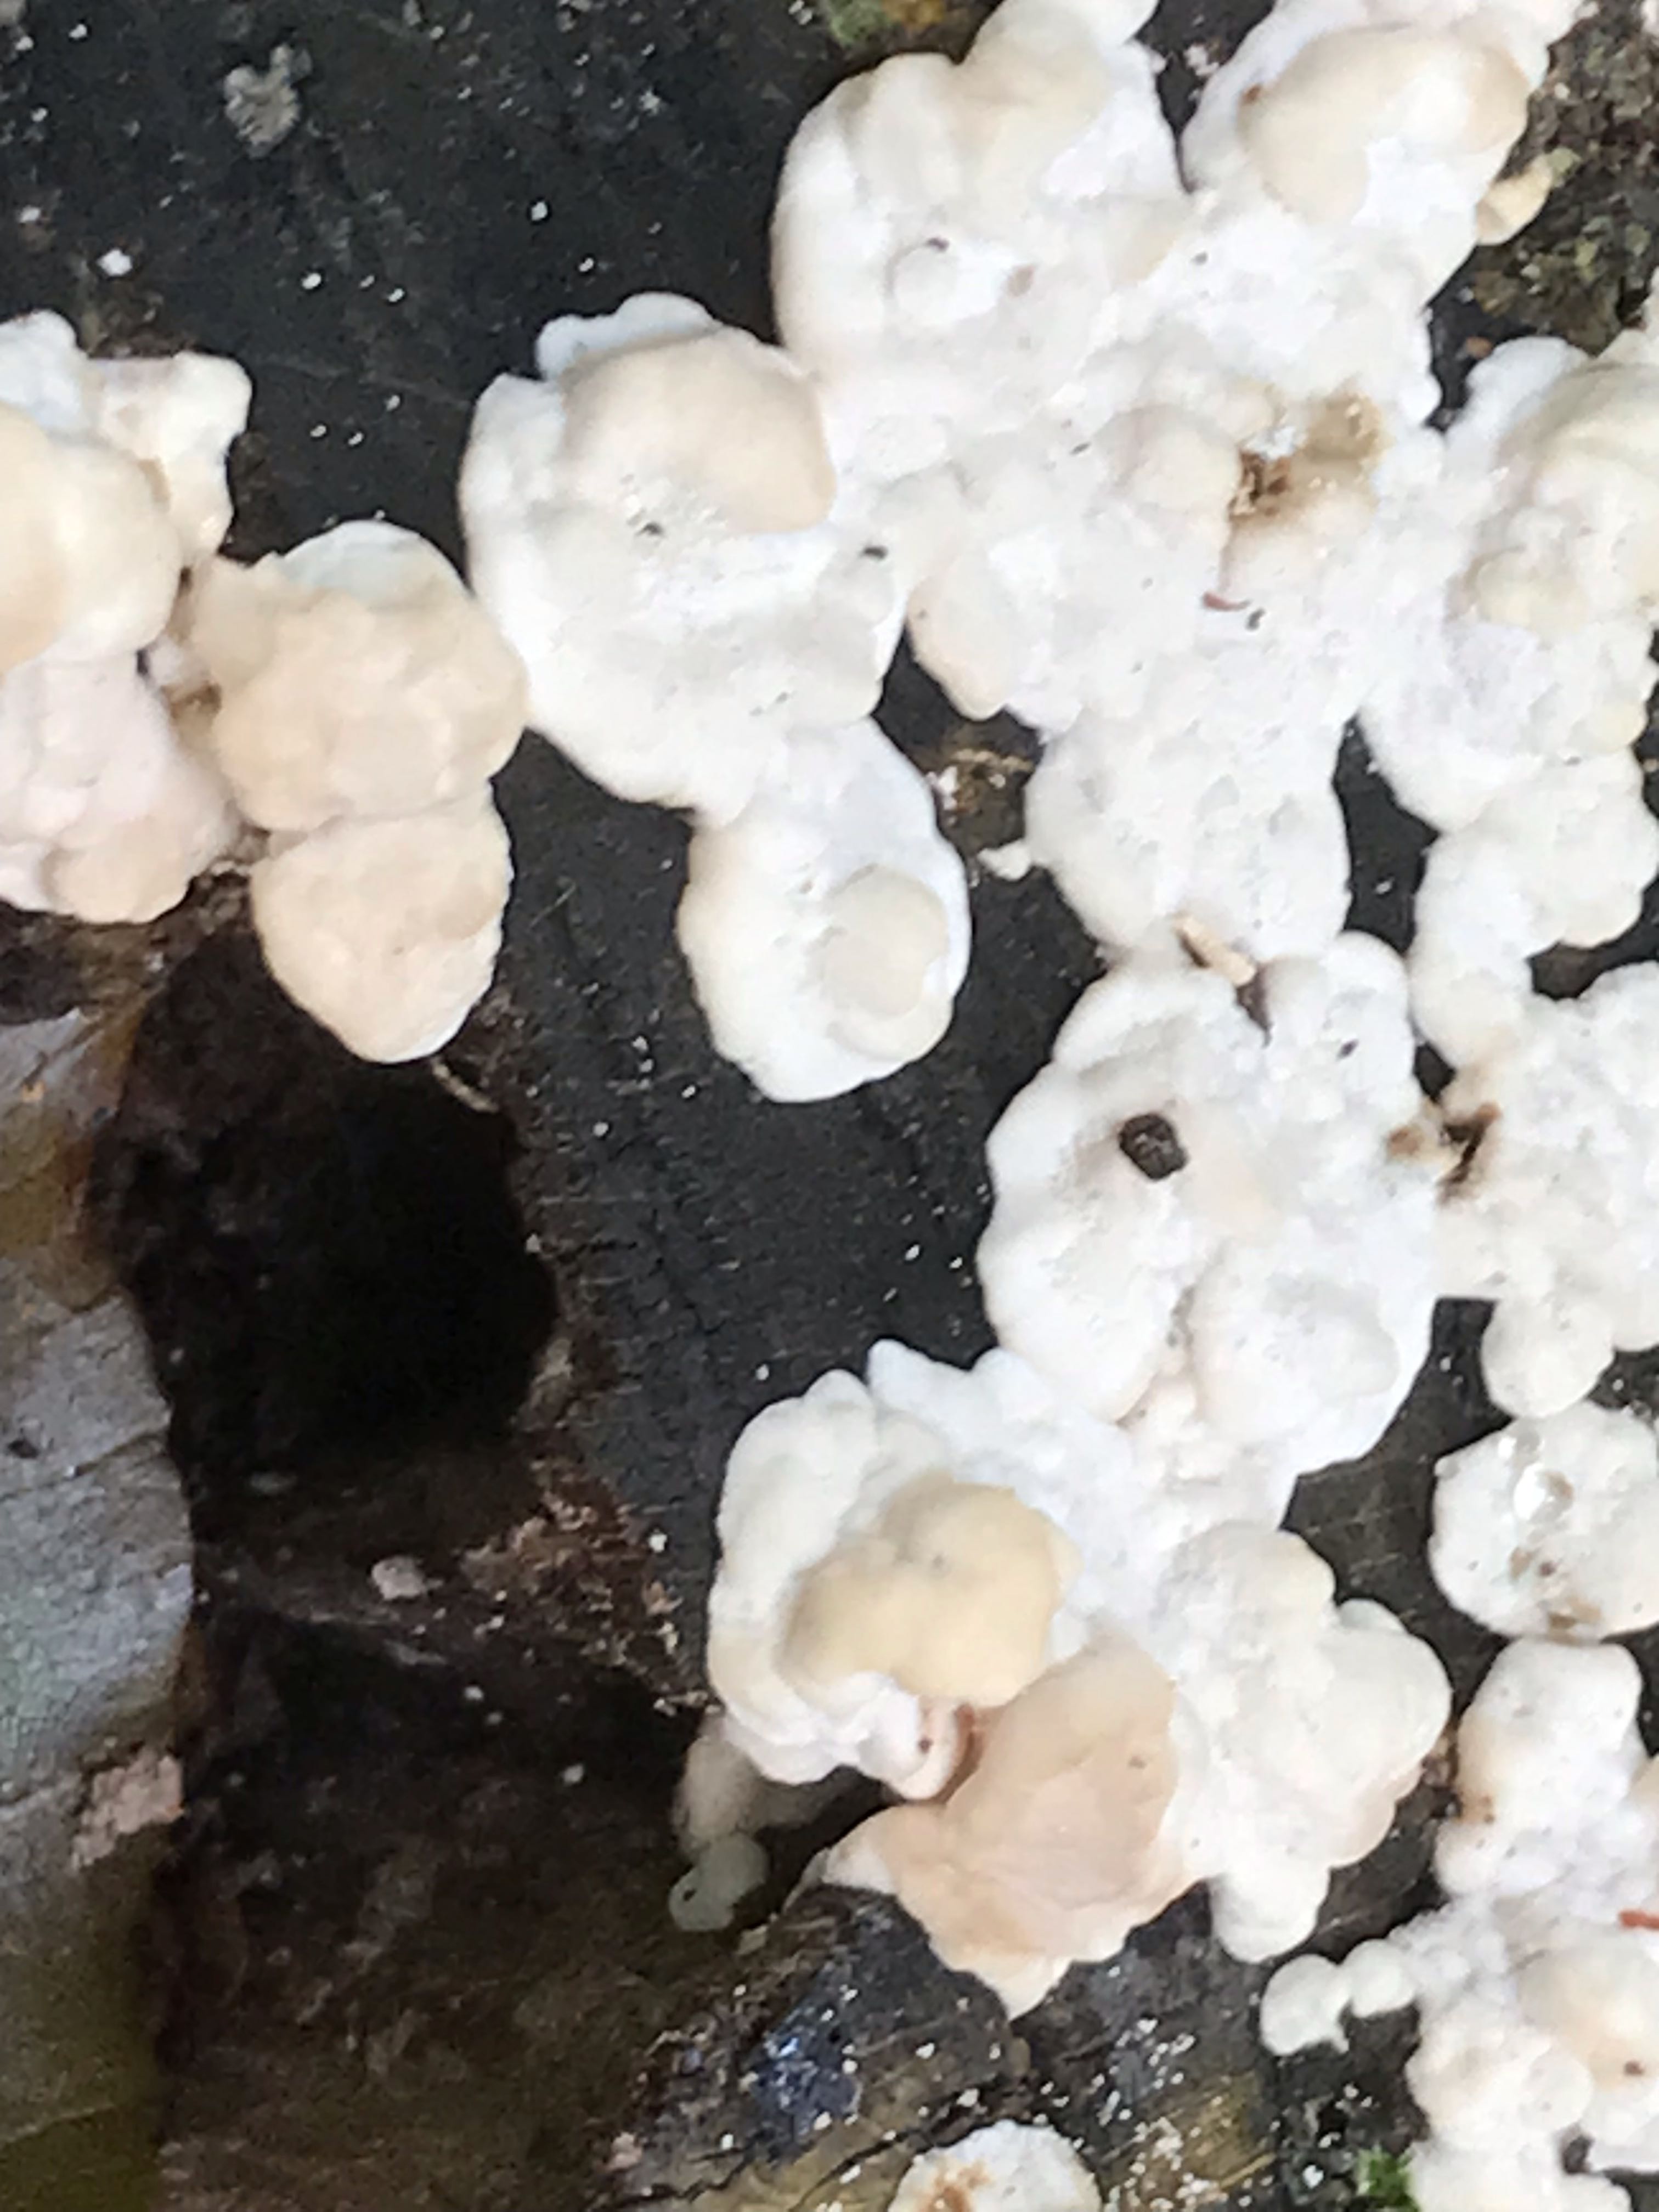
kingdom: Fungi
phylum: Basidiomycota
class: Agaricomycetes
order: Polyporales
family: Polyporaceae
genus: Trametes
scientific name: Trametes gibbosa
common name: puklet læderporesvamp
